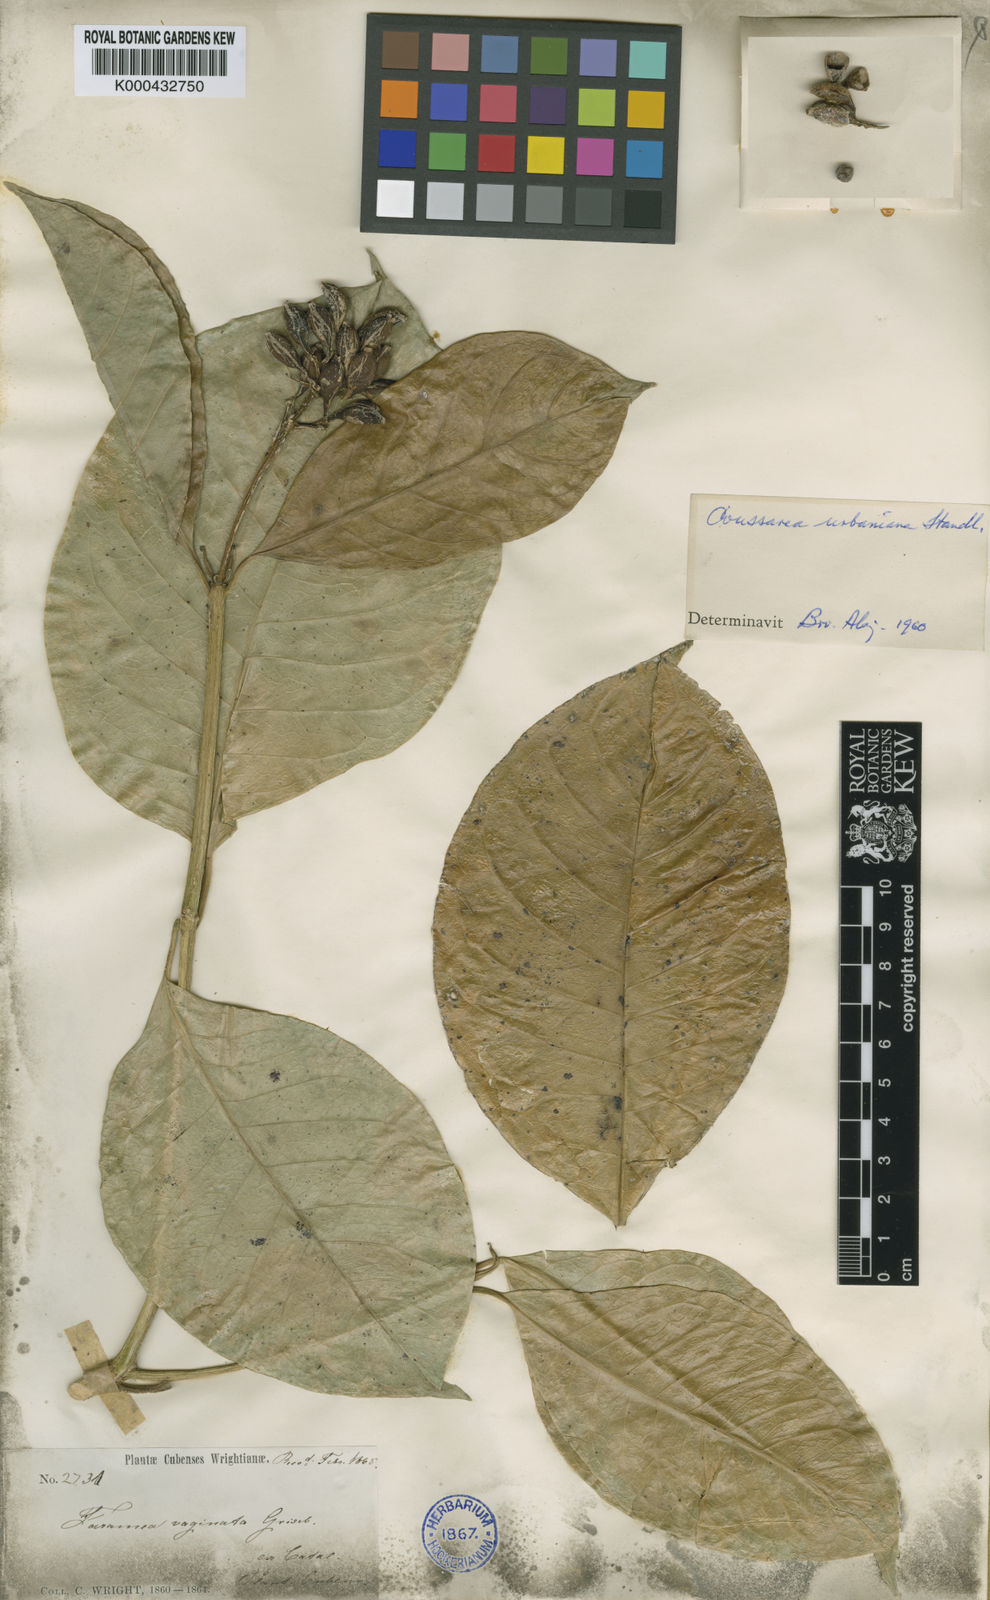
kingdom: Plantae
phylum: Tracheophyta
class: Magnoliopsida
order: Gentianales
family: Rubiaceae
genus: Coussarea
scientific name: Coussarea vaginata
